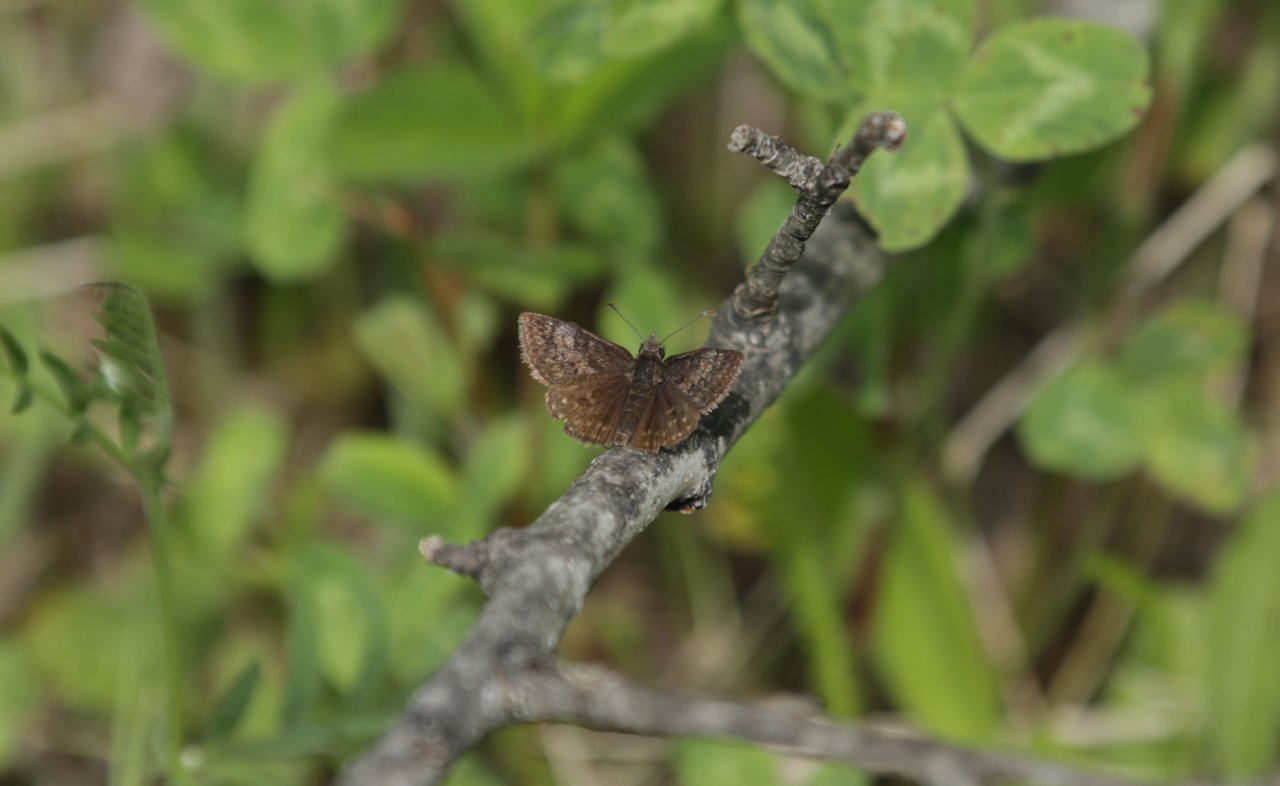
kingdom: Animalia
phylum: Arthropoda
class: Insecta
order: Lepidoptera
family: Hesperiidae
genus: Erynnis
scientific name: Erynnis icelus
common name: Dreamy Duskywing
